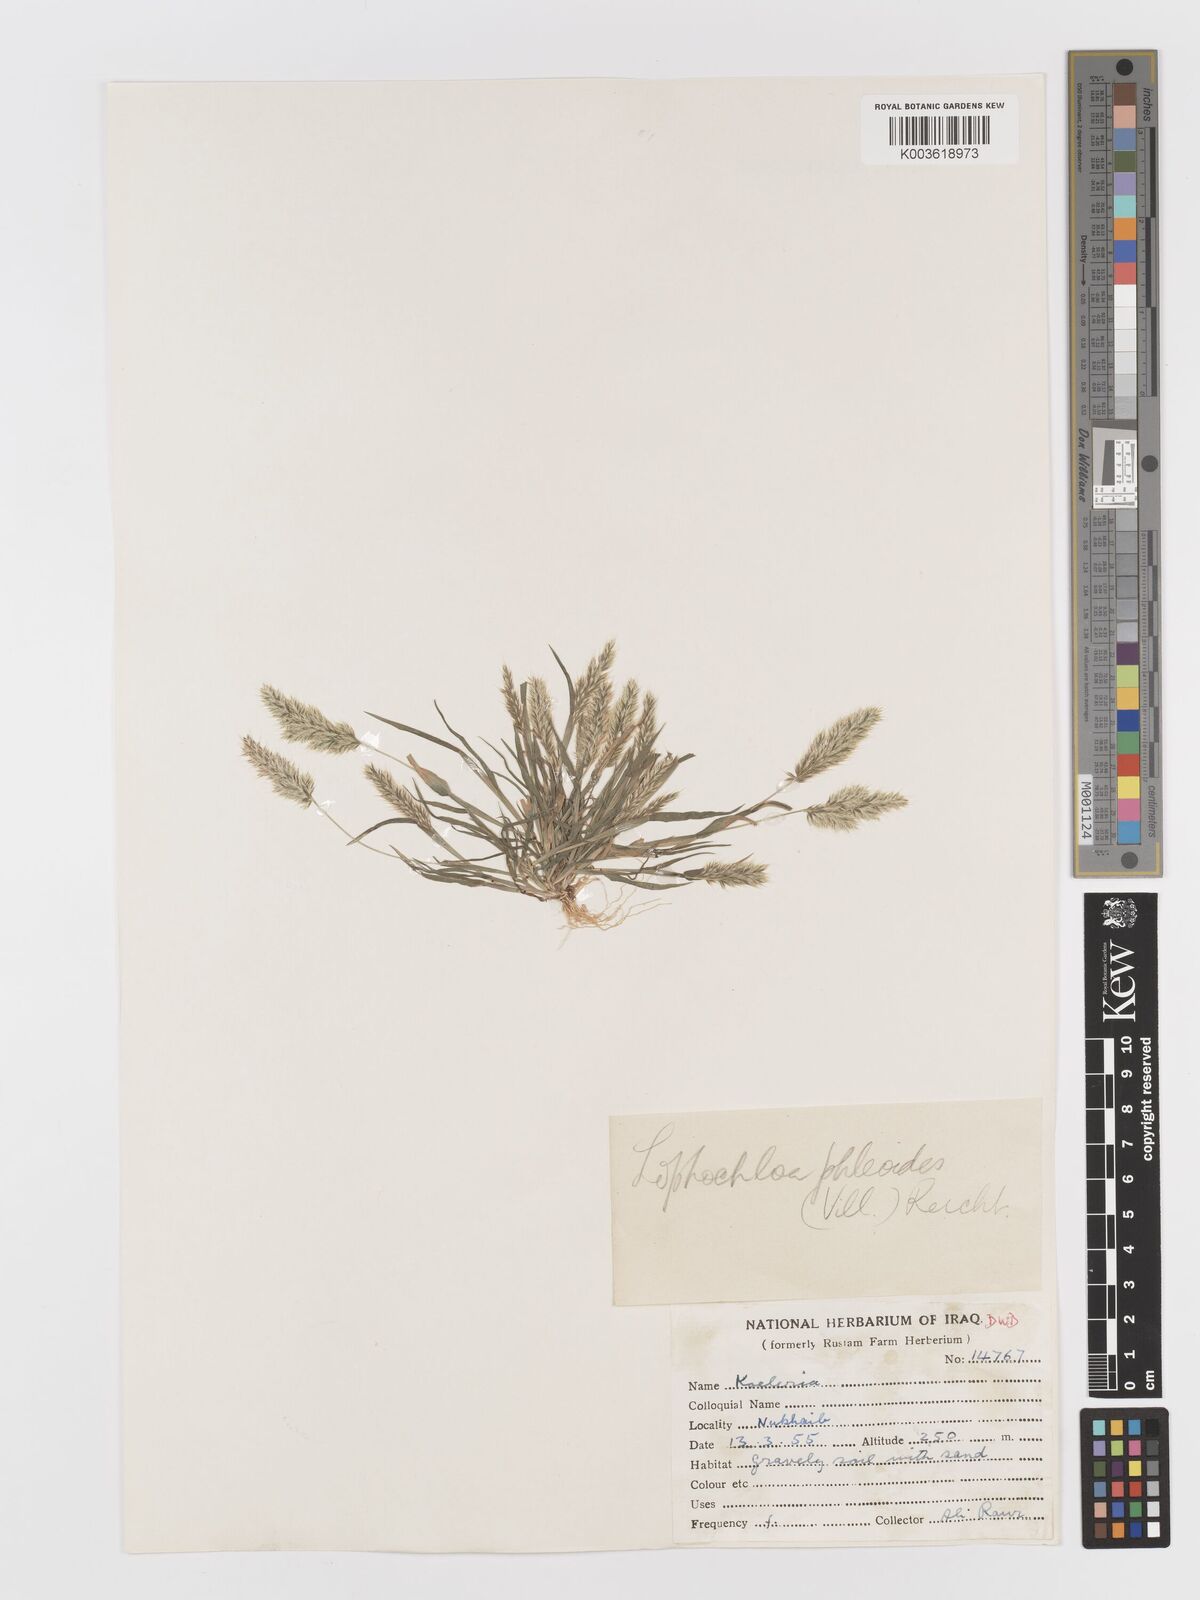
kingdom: Plantae
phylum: Tracheophyta
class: Liliopsida
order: Poales
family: Poaceae
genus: Rostraria
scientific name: Rostraria cristata
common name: Mediterranean hair-grass
